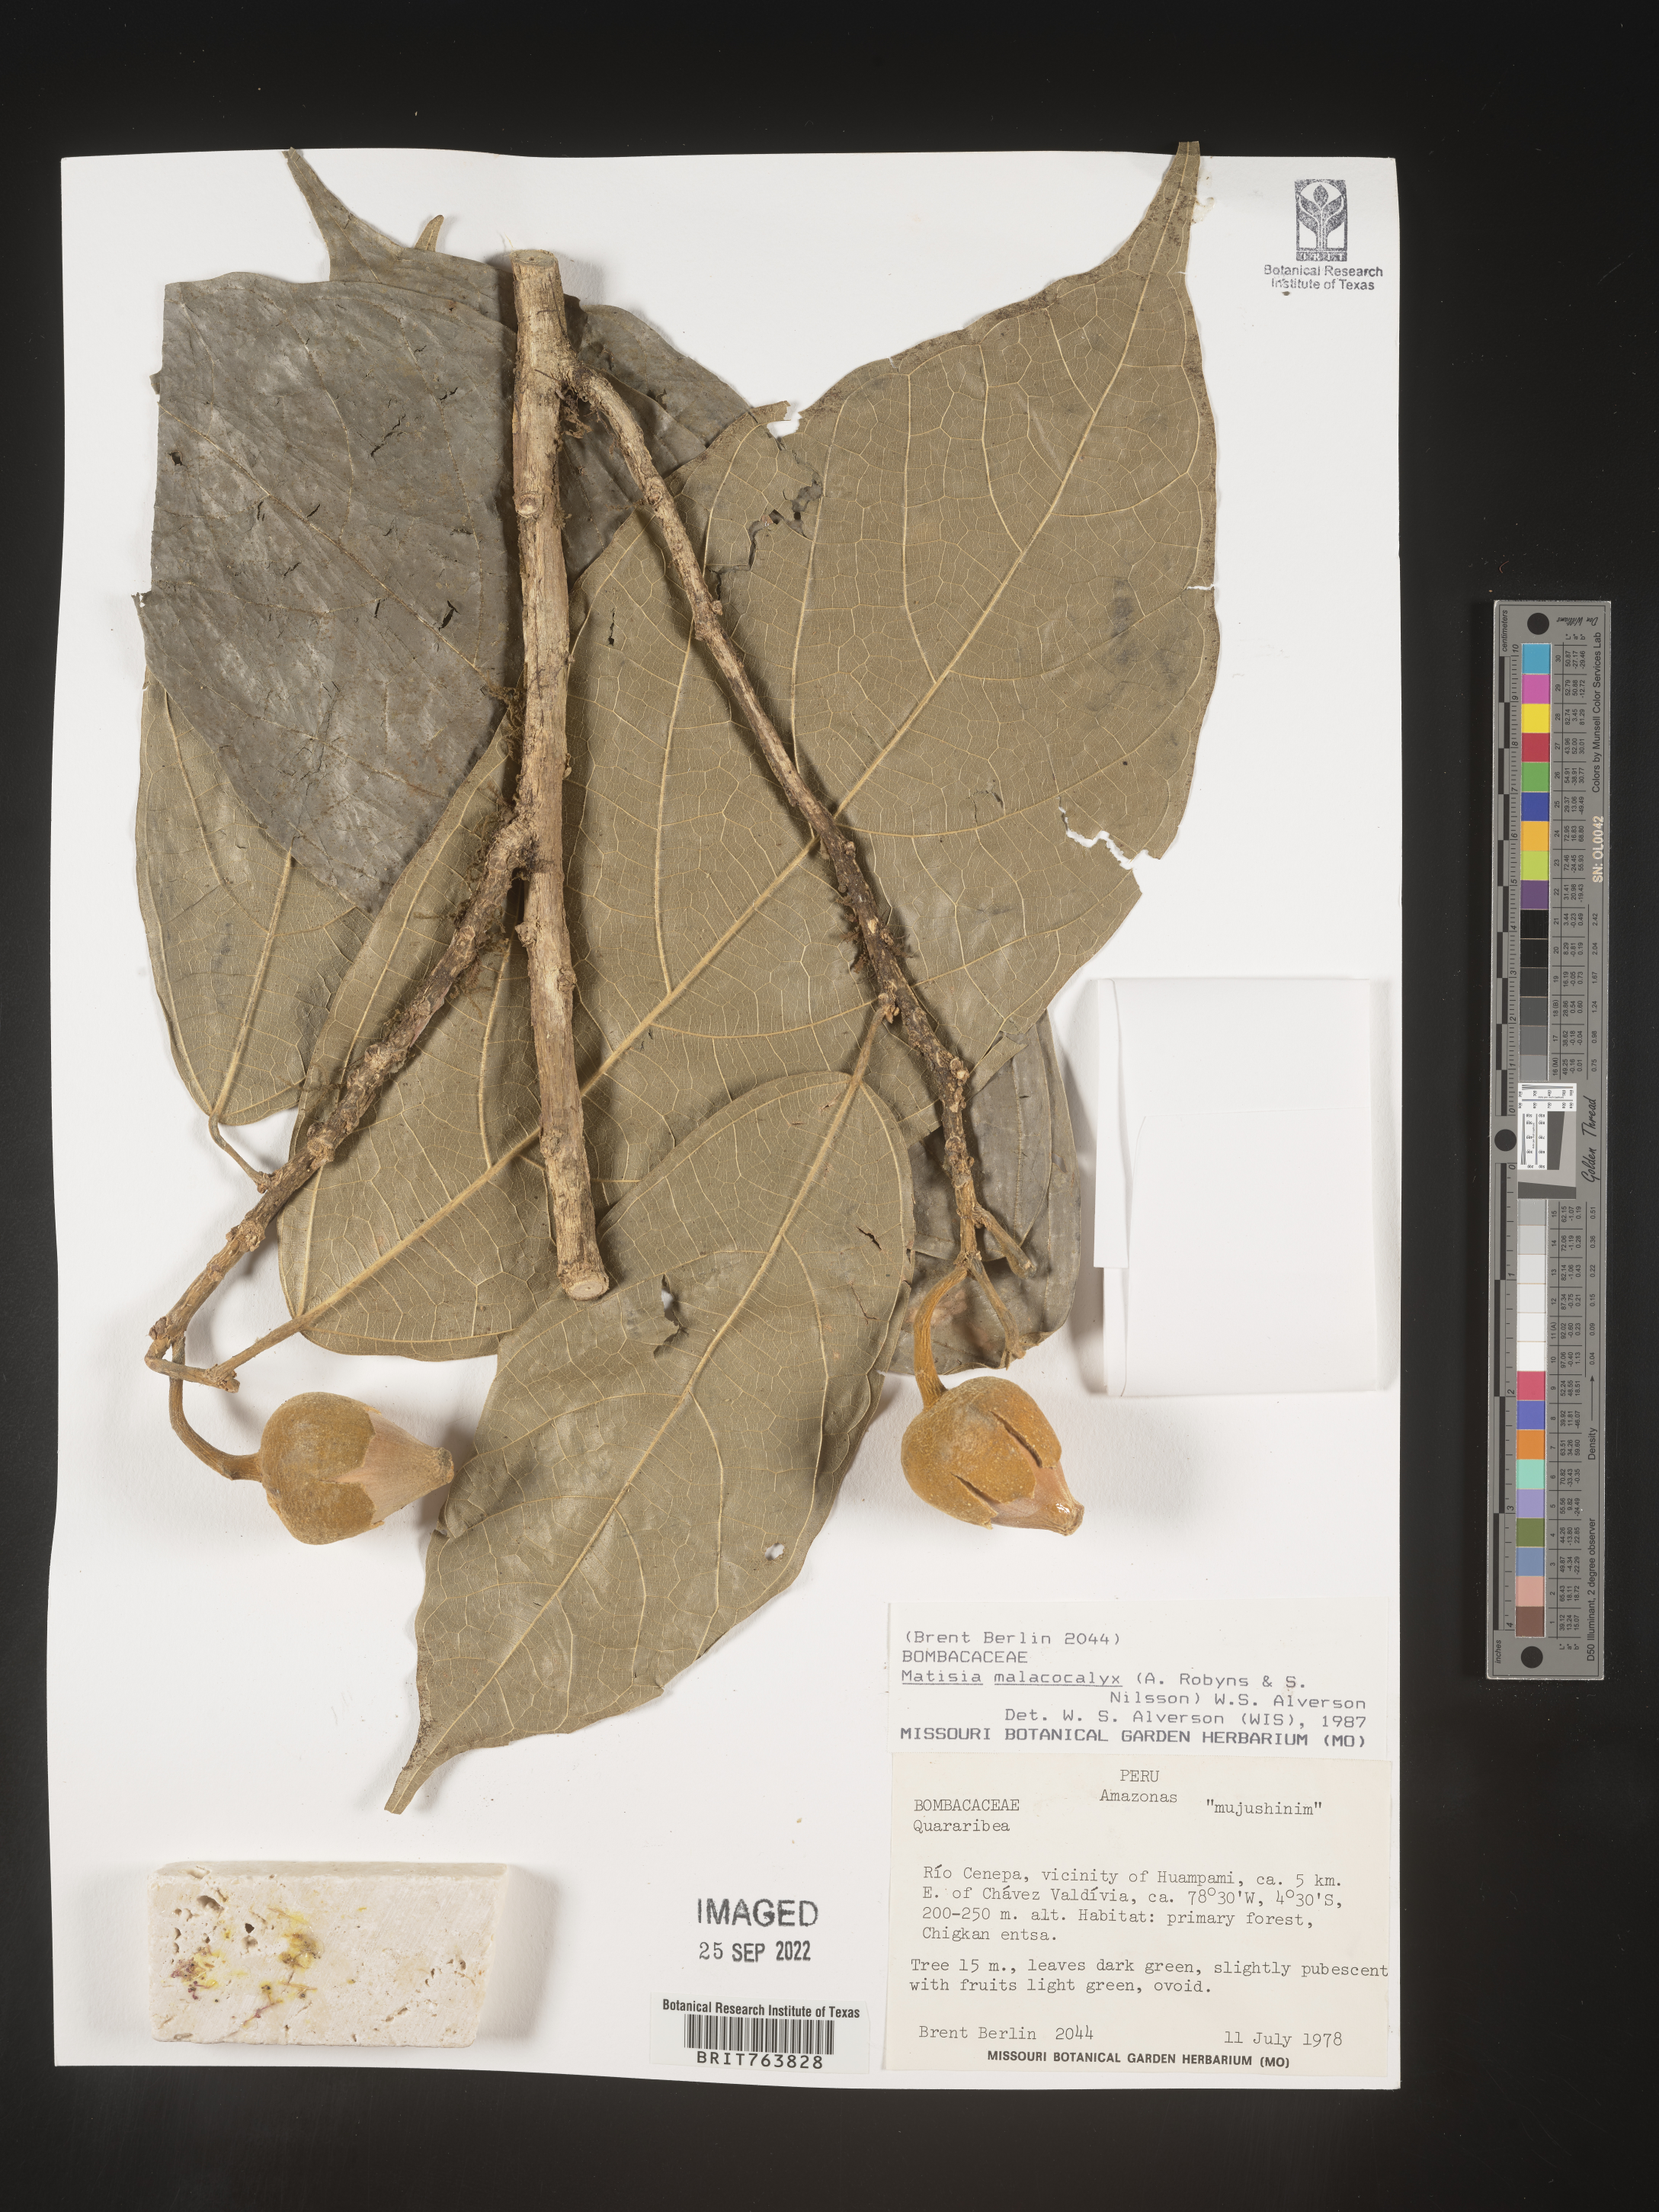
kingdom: Plantae
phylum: Tracheophyta
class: Magnoliopsida
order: Malvales
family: Malvaceae
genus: Matisia
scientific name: Matisia
